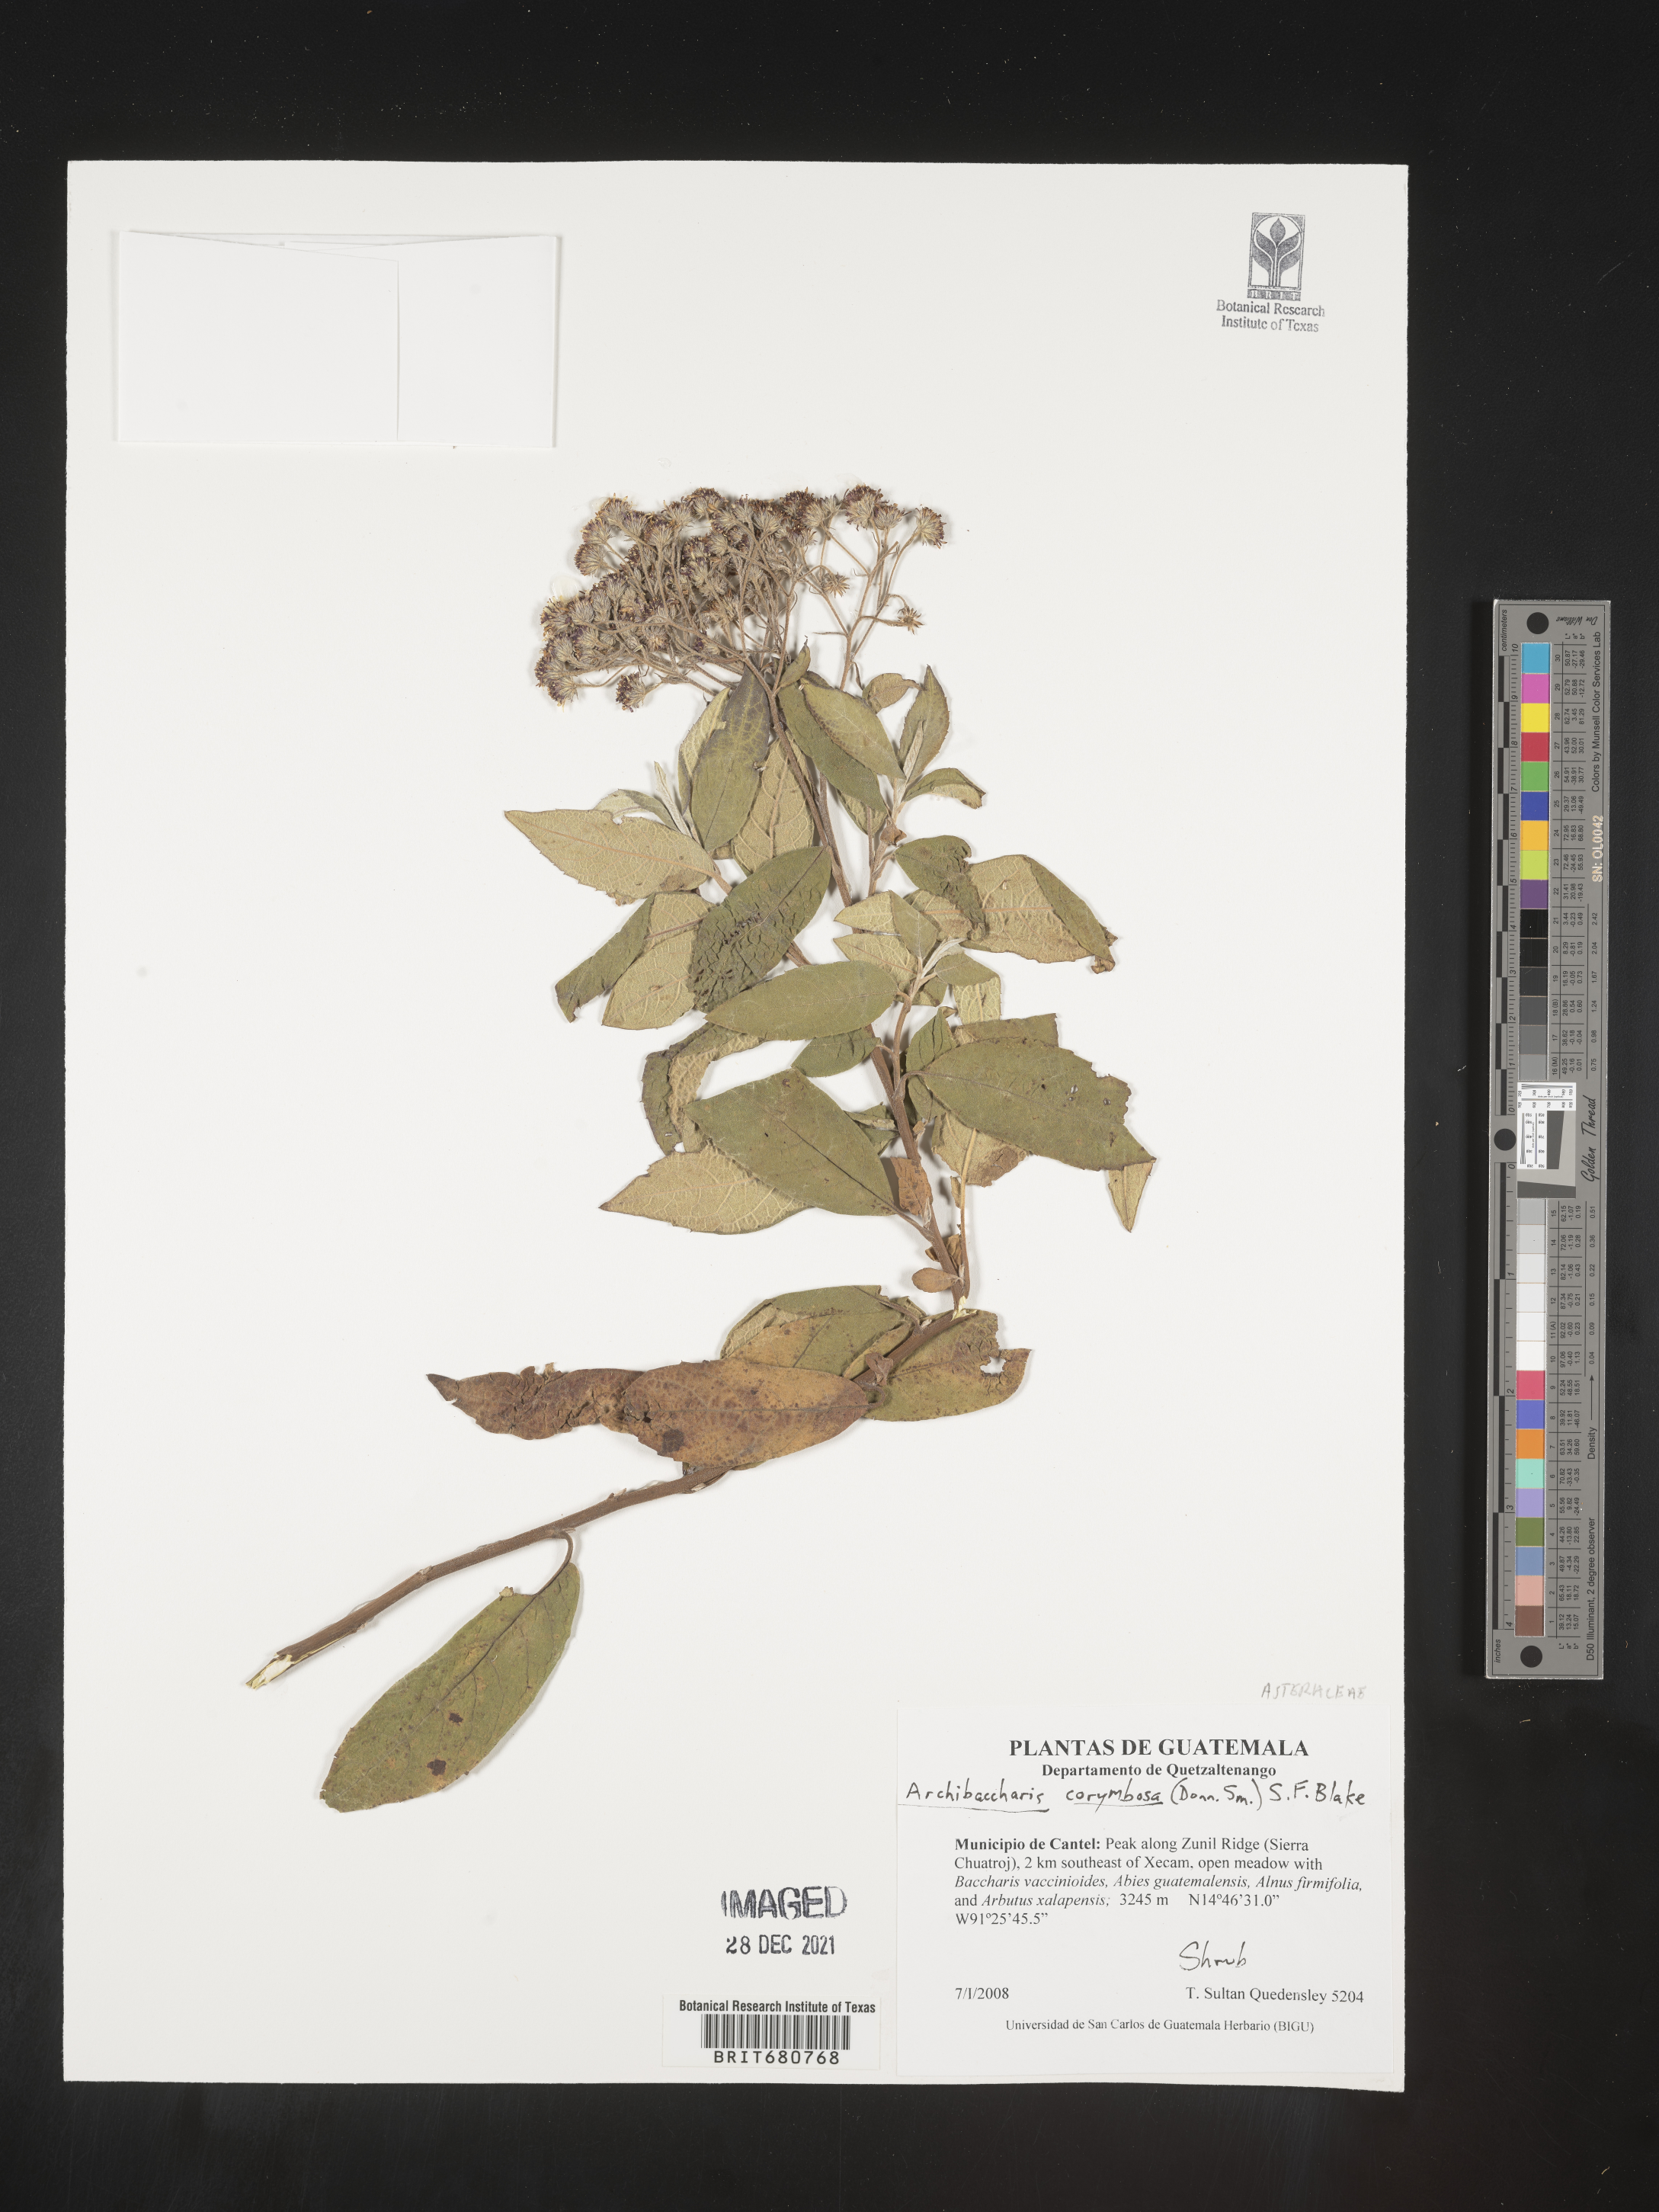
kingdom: Plantae
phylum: Tracheophyta
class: Magnoliopsida
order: Asterales
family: Asteraceae
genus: Archibaccharis
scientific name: Archibaccharis
